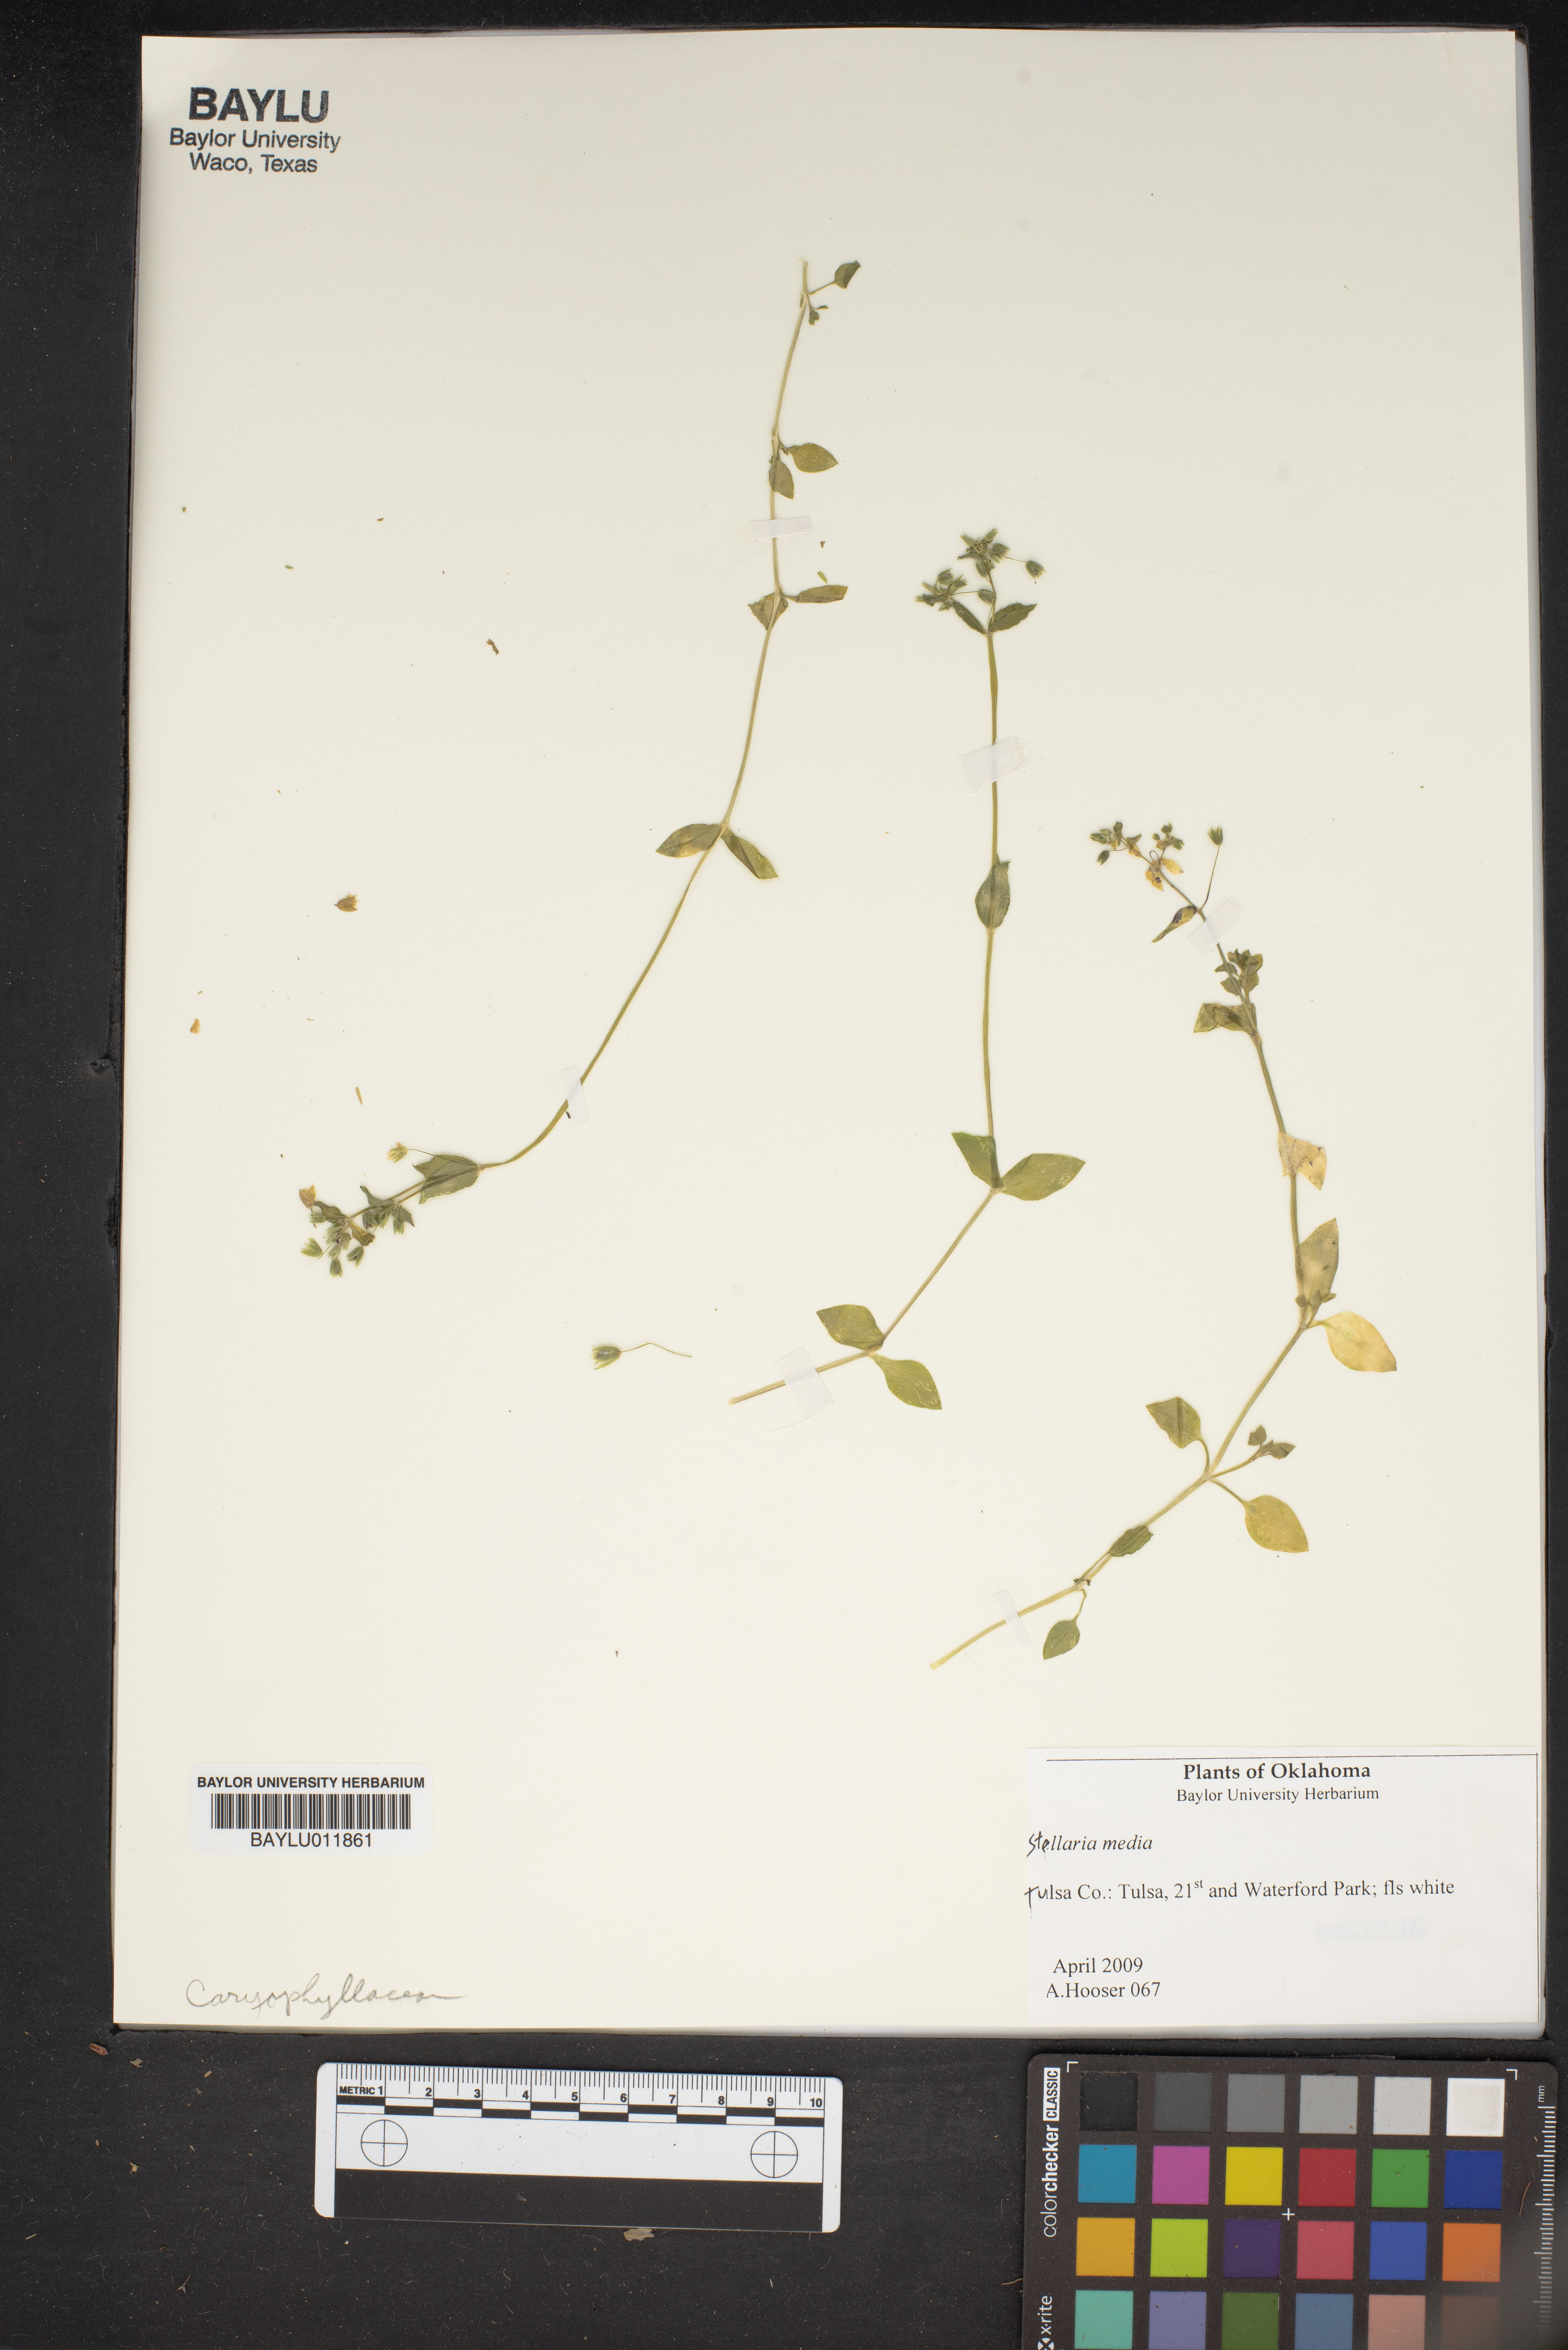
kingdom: Plantae
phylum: Tracheophyta
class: Magnoliopsida
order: Caryophyllales
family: Caryophyllaceae
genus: Stellaria
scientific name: Stellaria media
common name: Common chickweed
